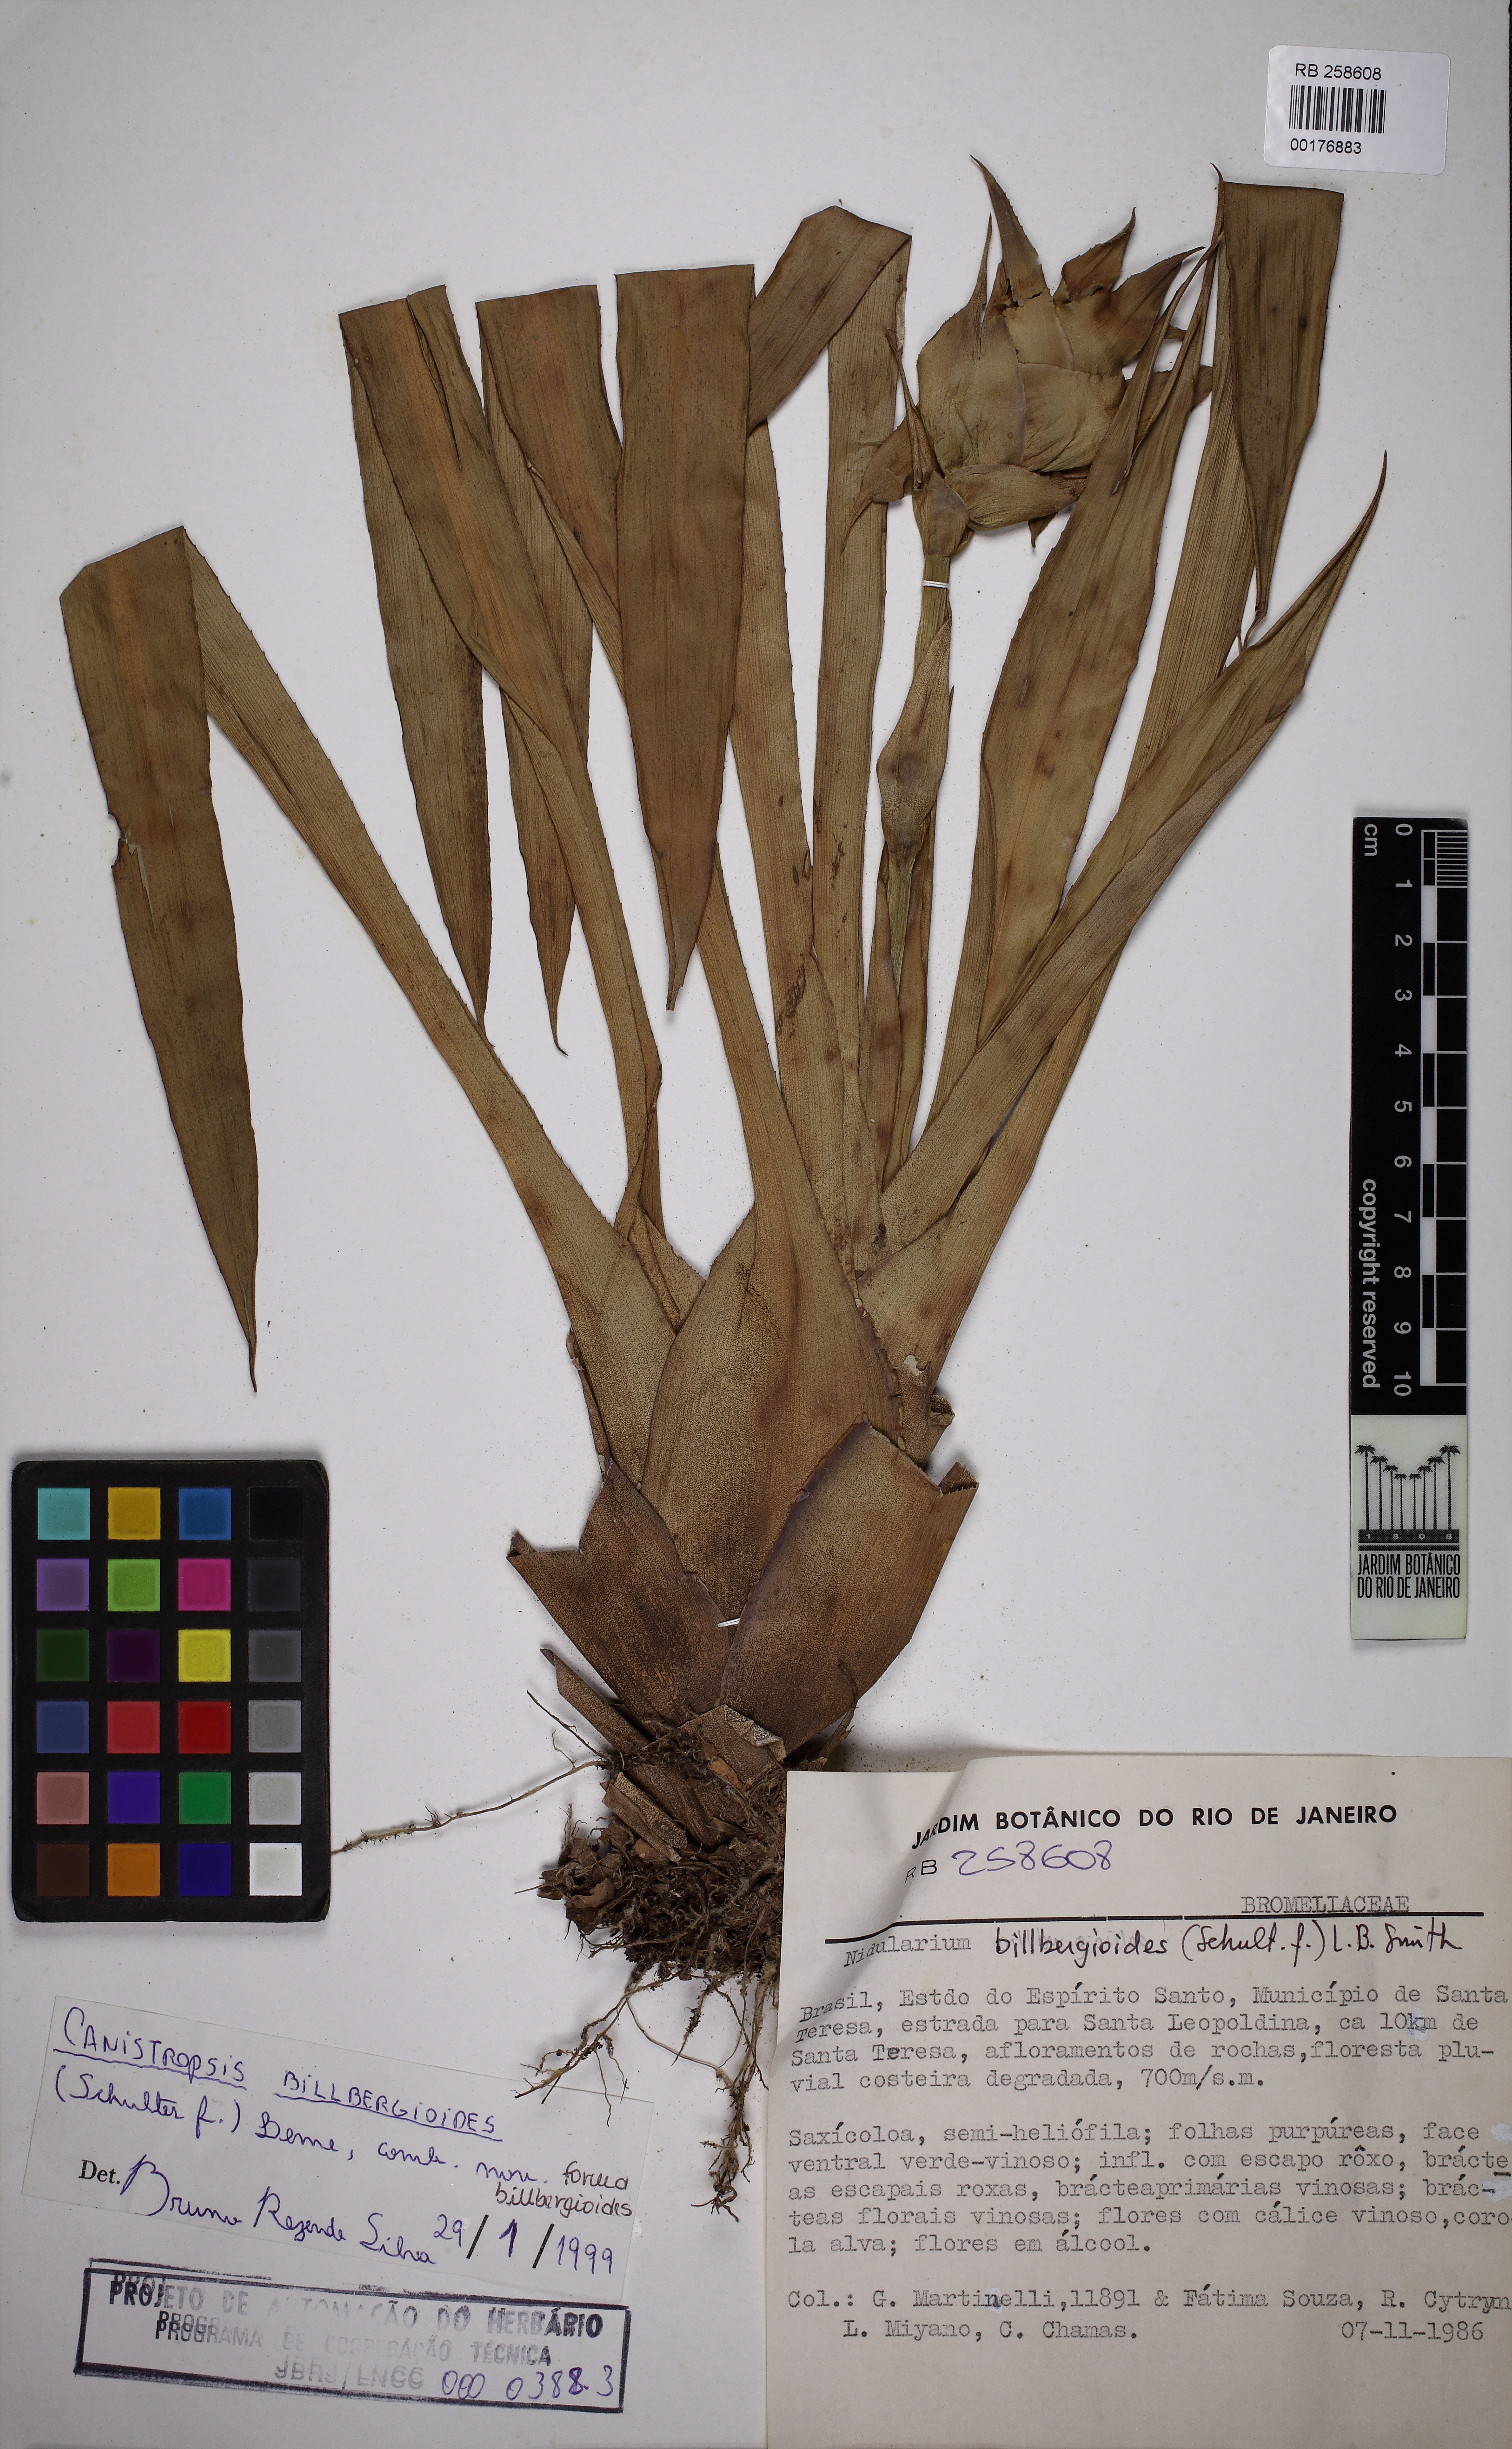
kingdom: Plantae
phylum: Tracheophyta
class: Liliopsida
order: Poales
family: Bromeliaceae
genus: Canistropsis
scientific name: Canistropsis billbergioides
